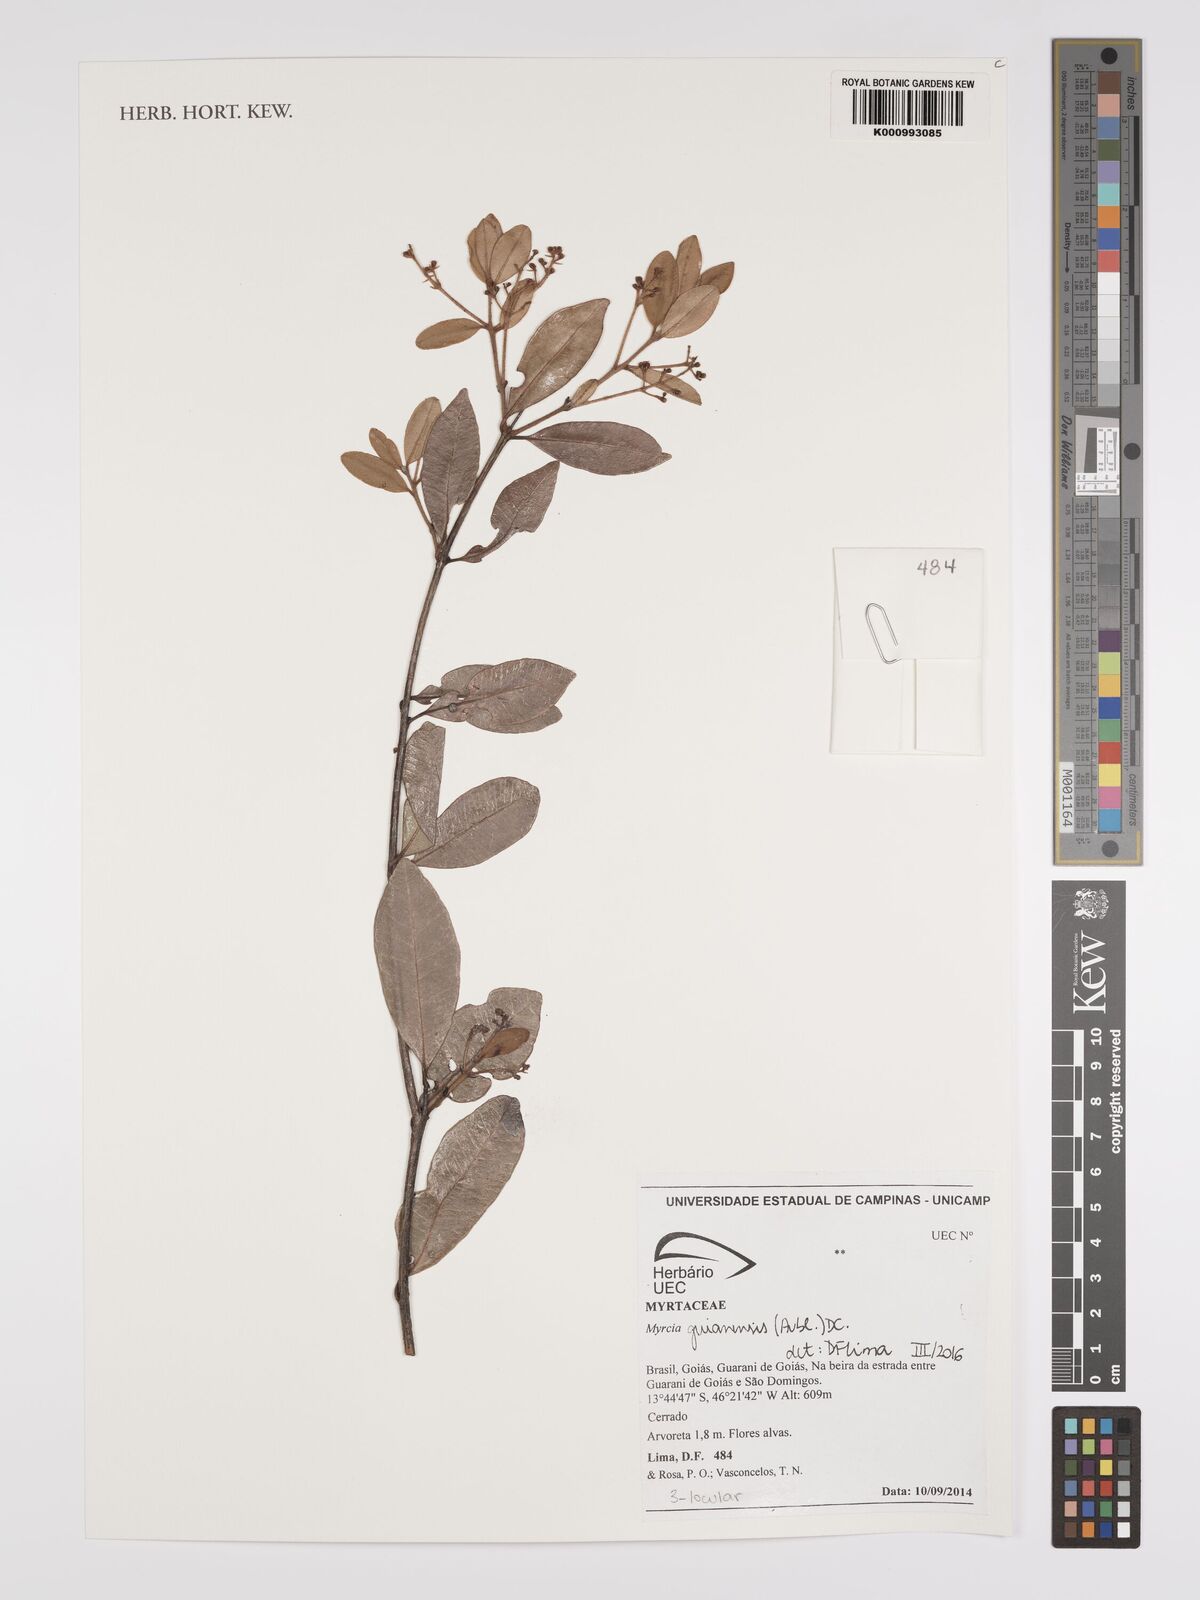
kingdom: Plantae
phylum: Tracheophyta
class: Magnoliopsida
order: Myrtales
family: Myrtaceae
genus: Myrcia
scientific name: Myrcia guianensis
